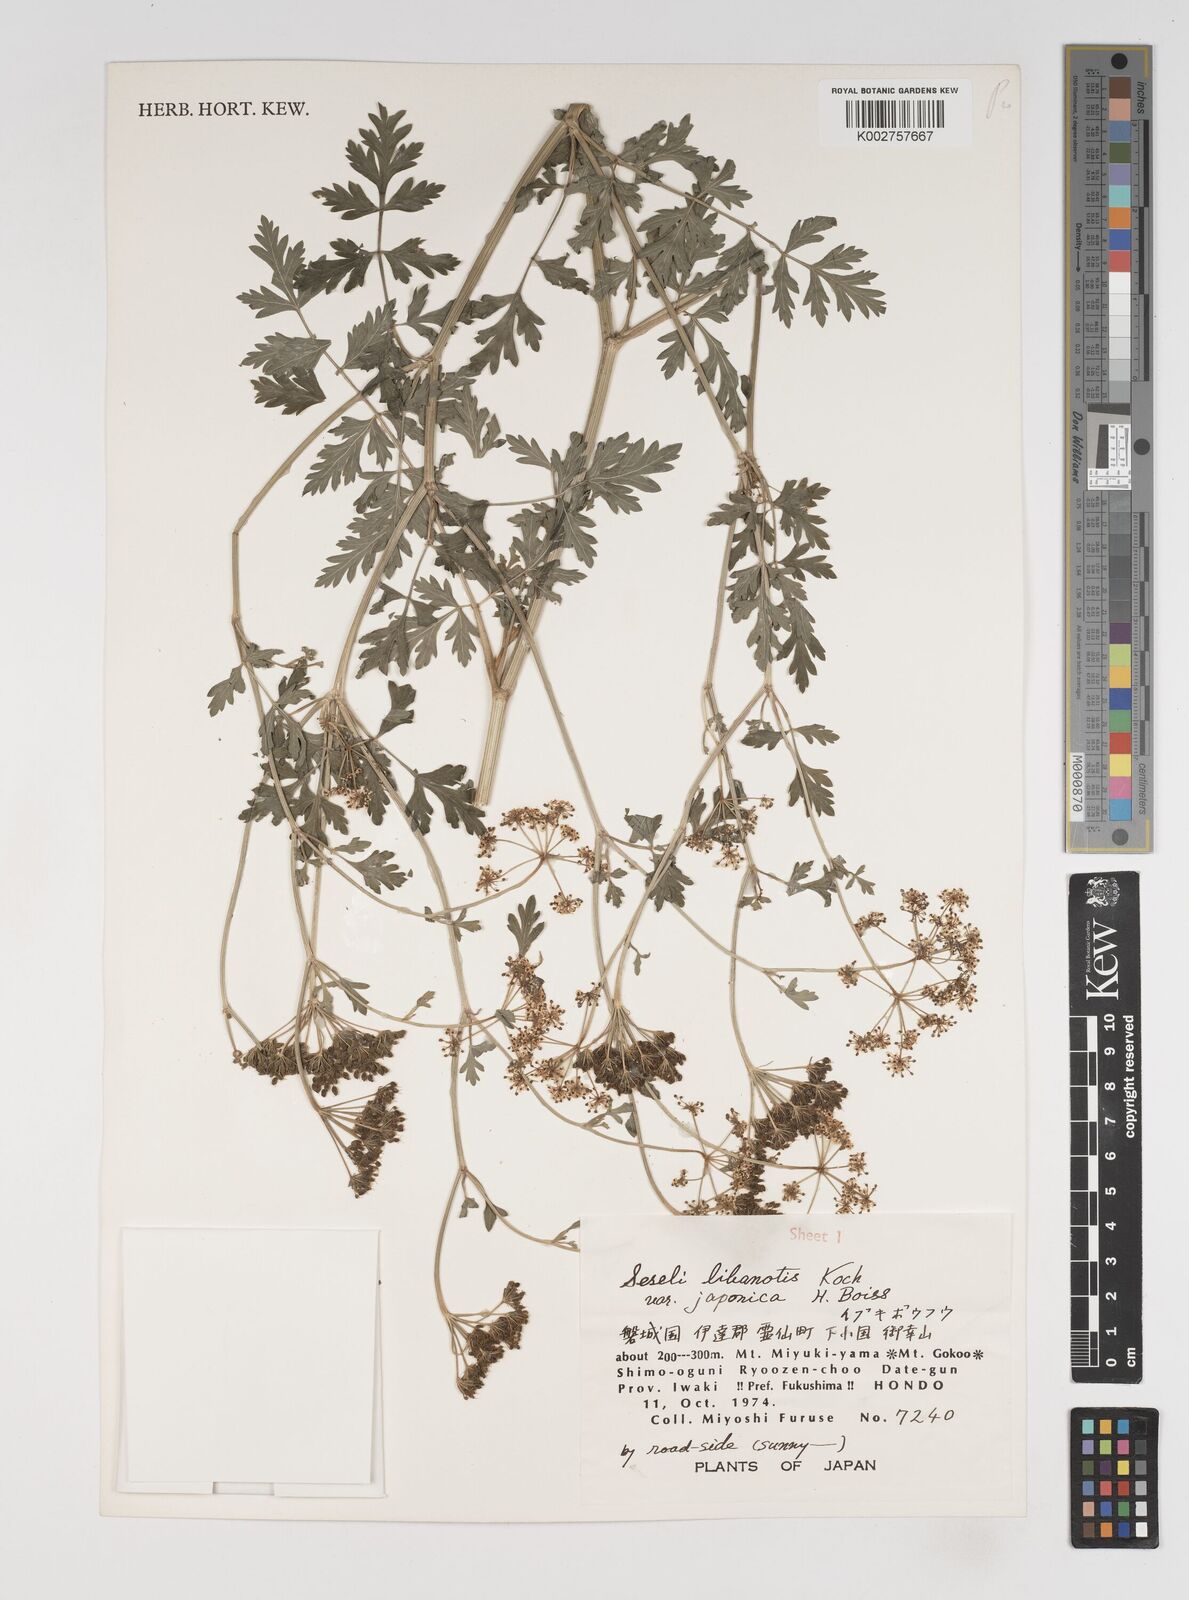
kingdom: Plantae
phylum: Tracheophyta
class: Magnoliopsida
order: Apiales
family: Apiaceae
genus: Seseli
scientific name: Seseli libanotis
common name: Mooncarrot
